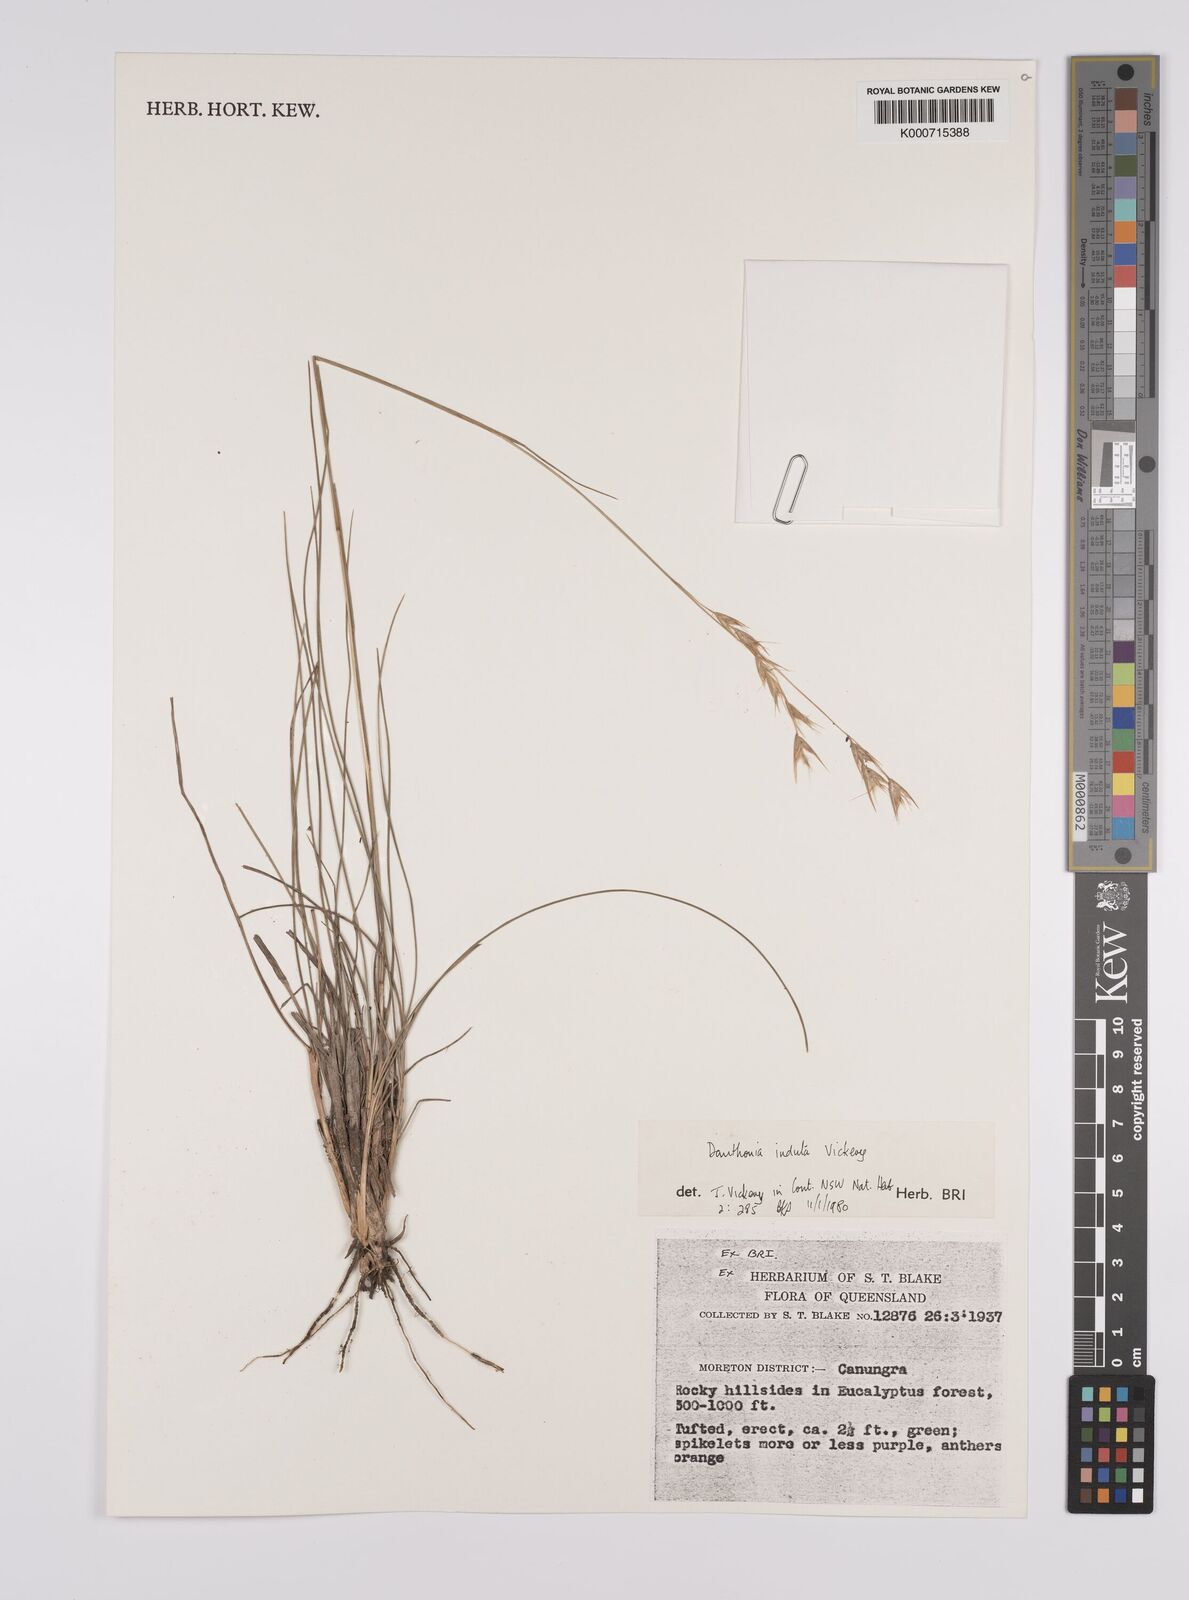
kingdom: Plantae
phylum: Tracheophyta
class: Liliopsida
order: Poales
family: Poaceae
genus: Rytidosperma
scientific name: Rytidosperma indutum
